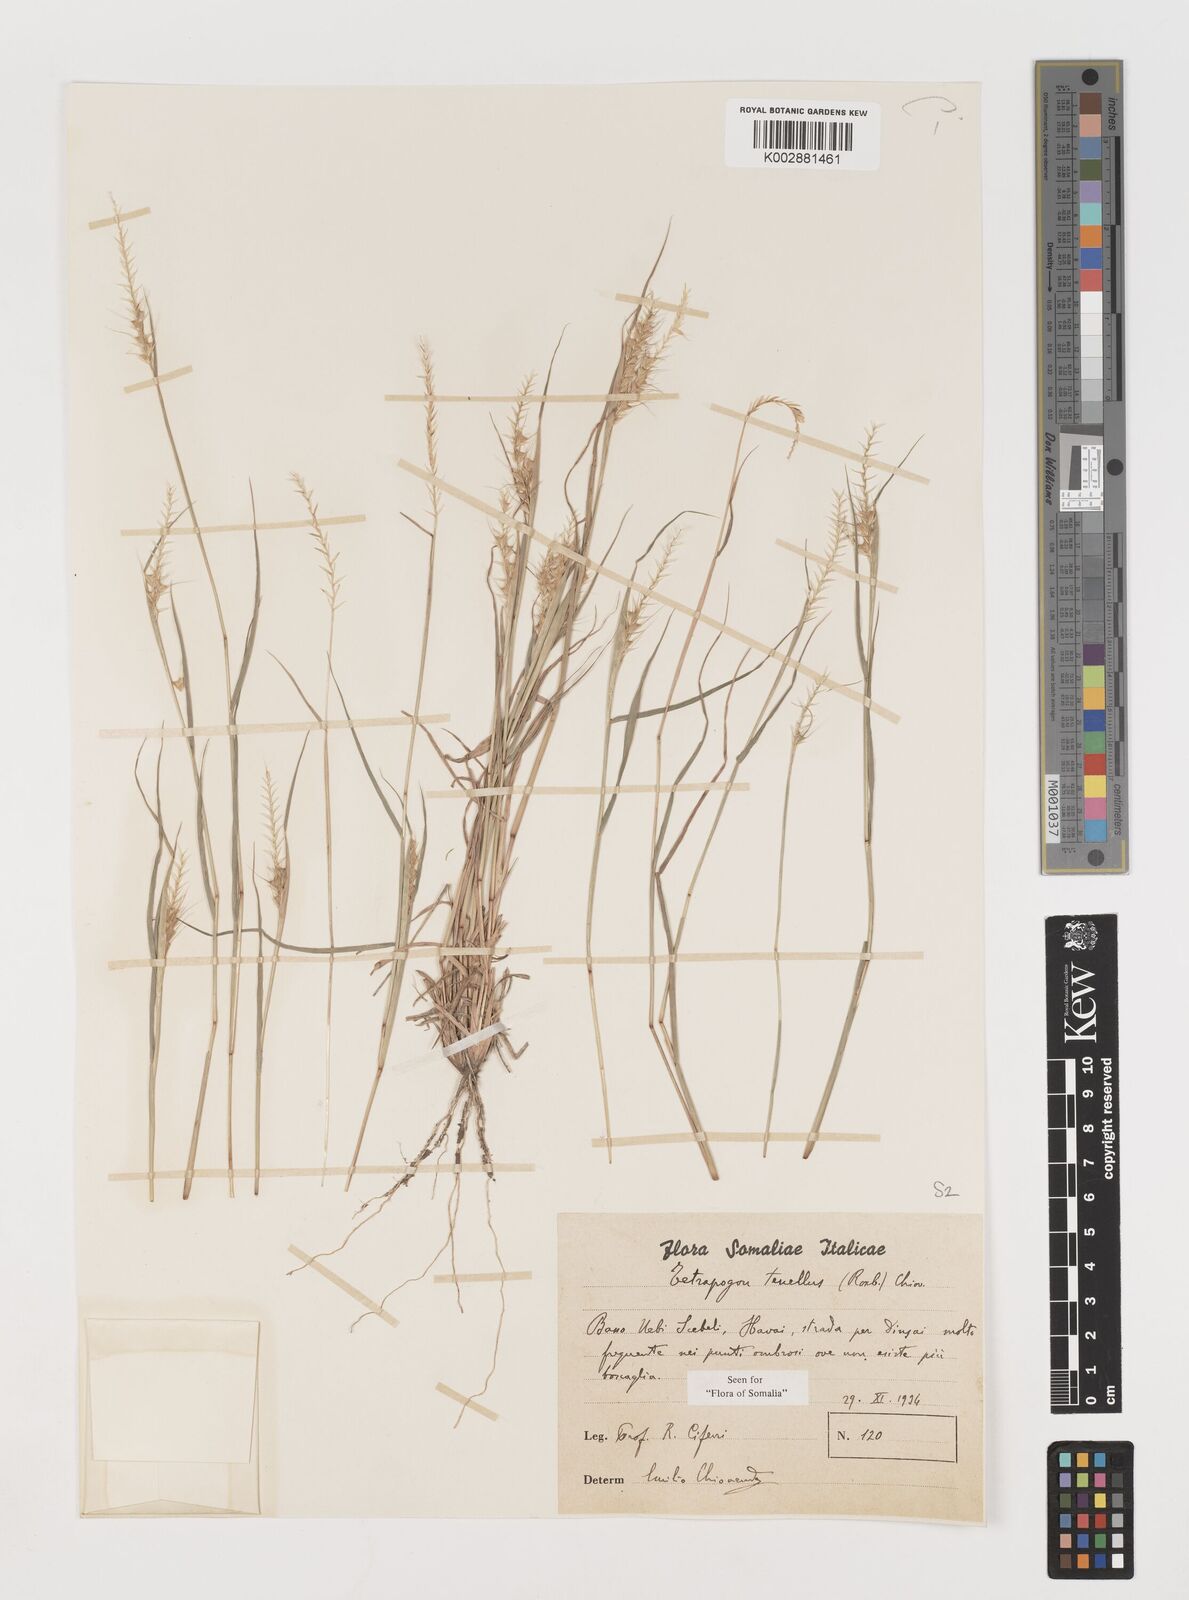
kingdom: Plantae
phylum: Tracheophyta
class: Liliopsida
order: Poales
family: Poaceae
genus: Tetrapogon
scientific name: Tetrapogon tenellus
